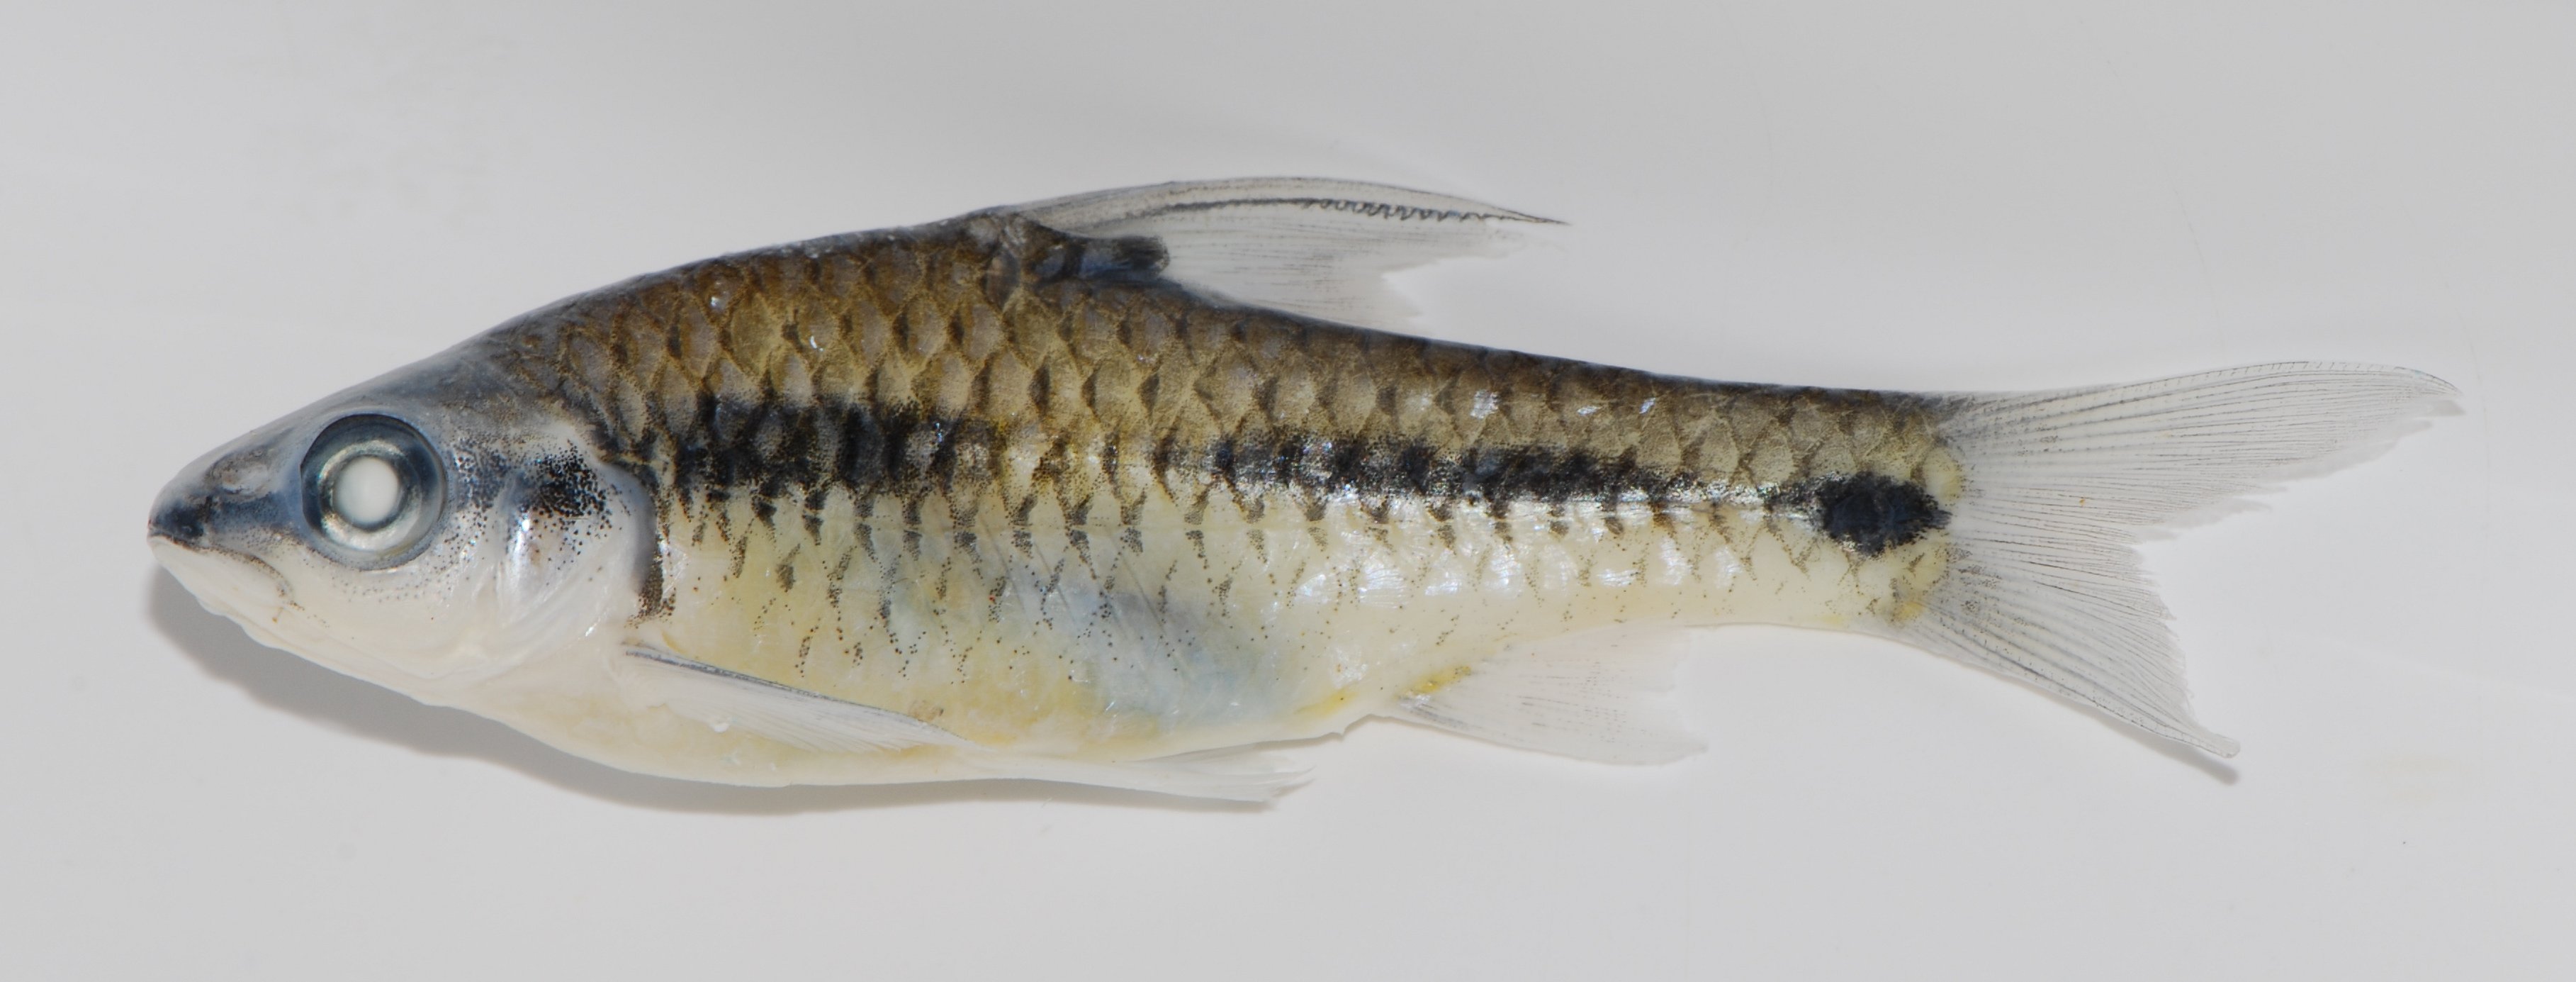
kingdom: Animalia
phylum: Chordata
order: Cypriniformes
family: Cyprinidae
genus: Enteromius
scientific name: Enteromius camptacanthus
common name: African redfinned barb
